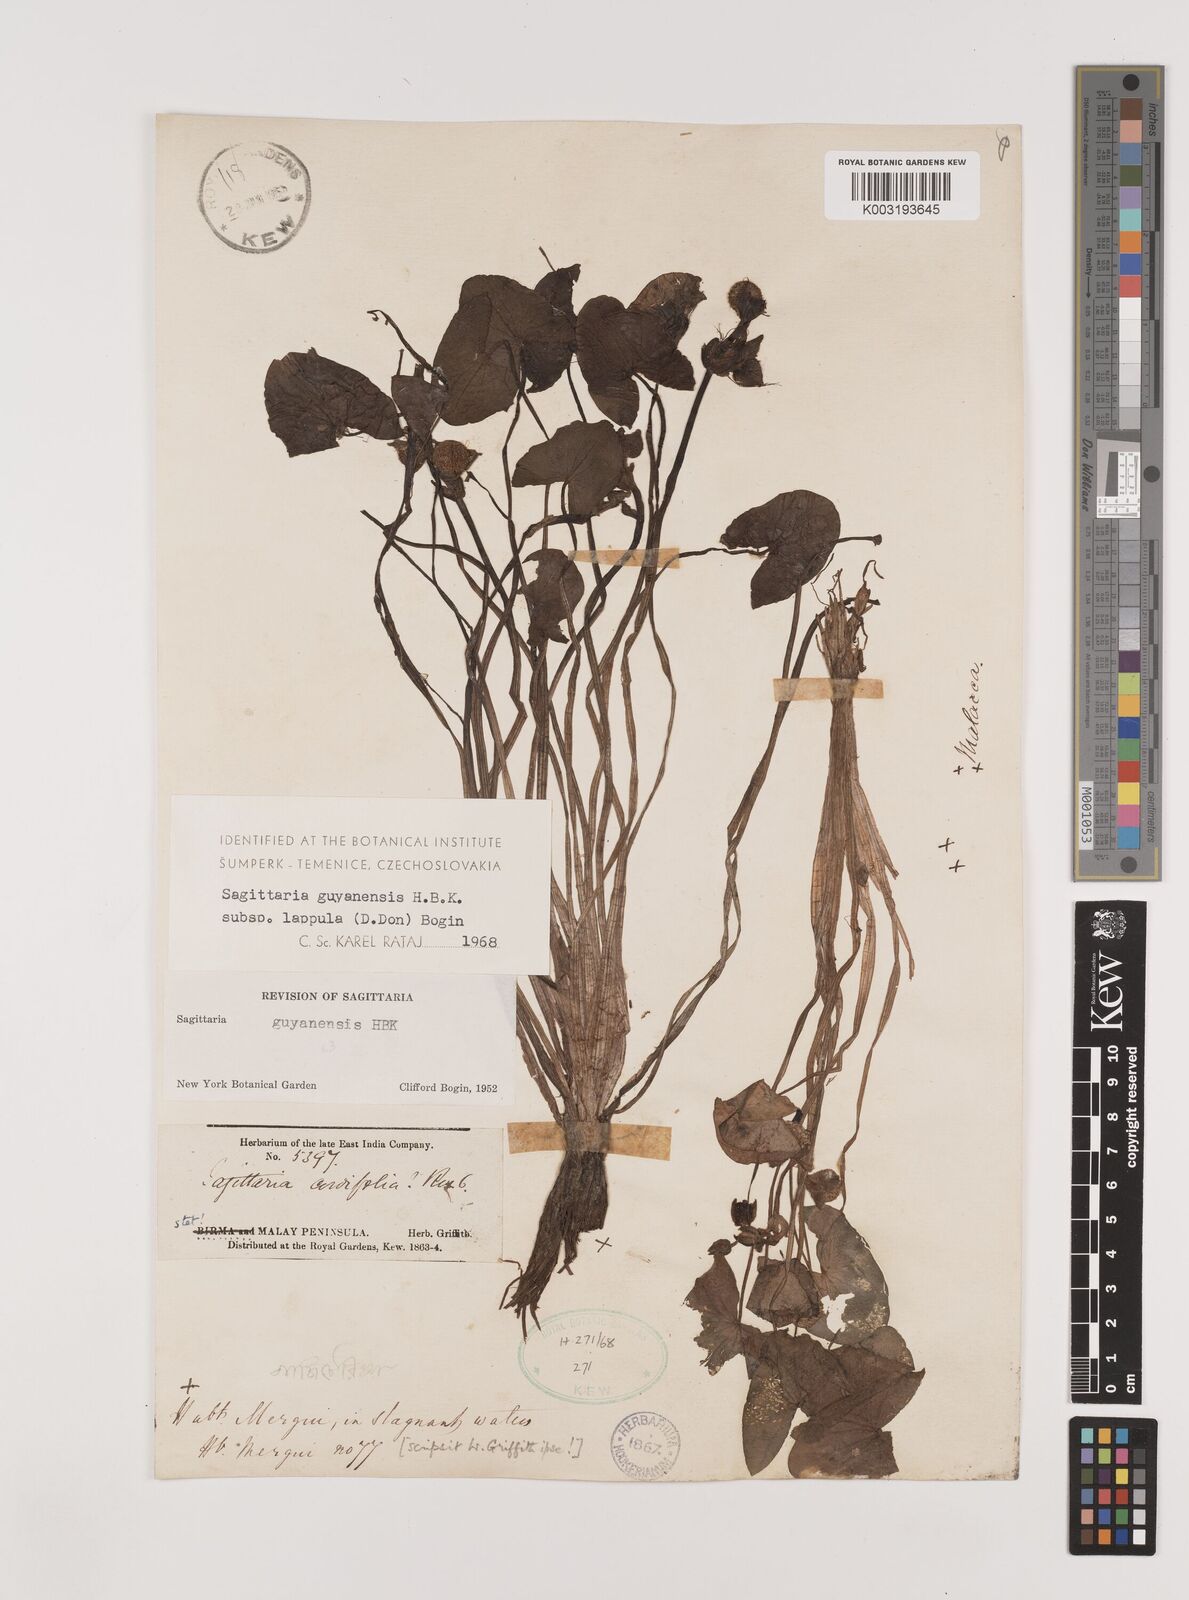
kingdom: Plantae
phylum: Tracheophyta
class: Liliopsida
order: Alismatales
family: Alismataceae
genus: Sagittaria
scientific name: Sagittaria guayanensis
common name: Guyanese arrowhead
